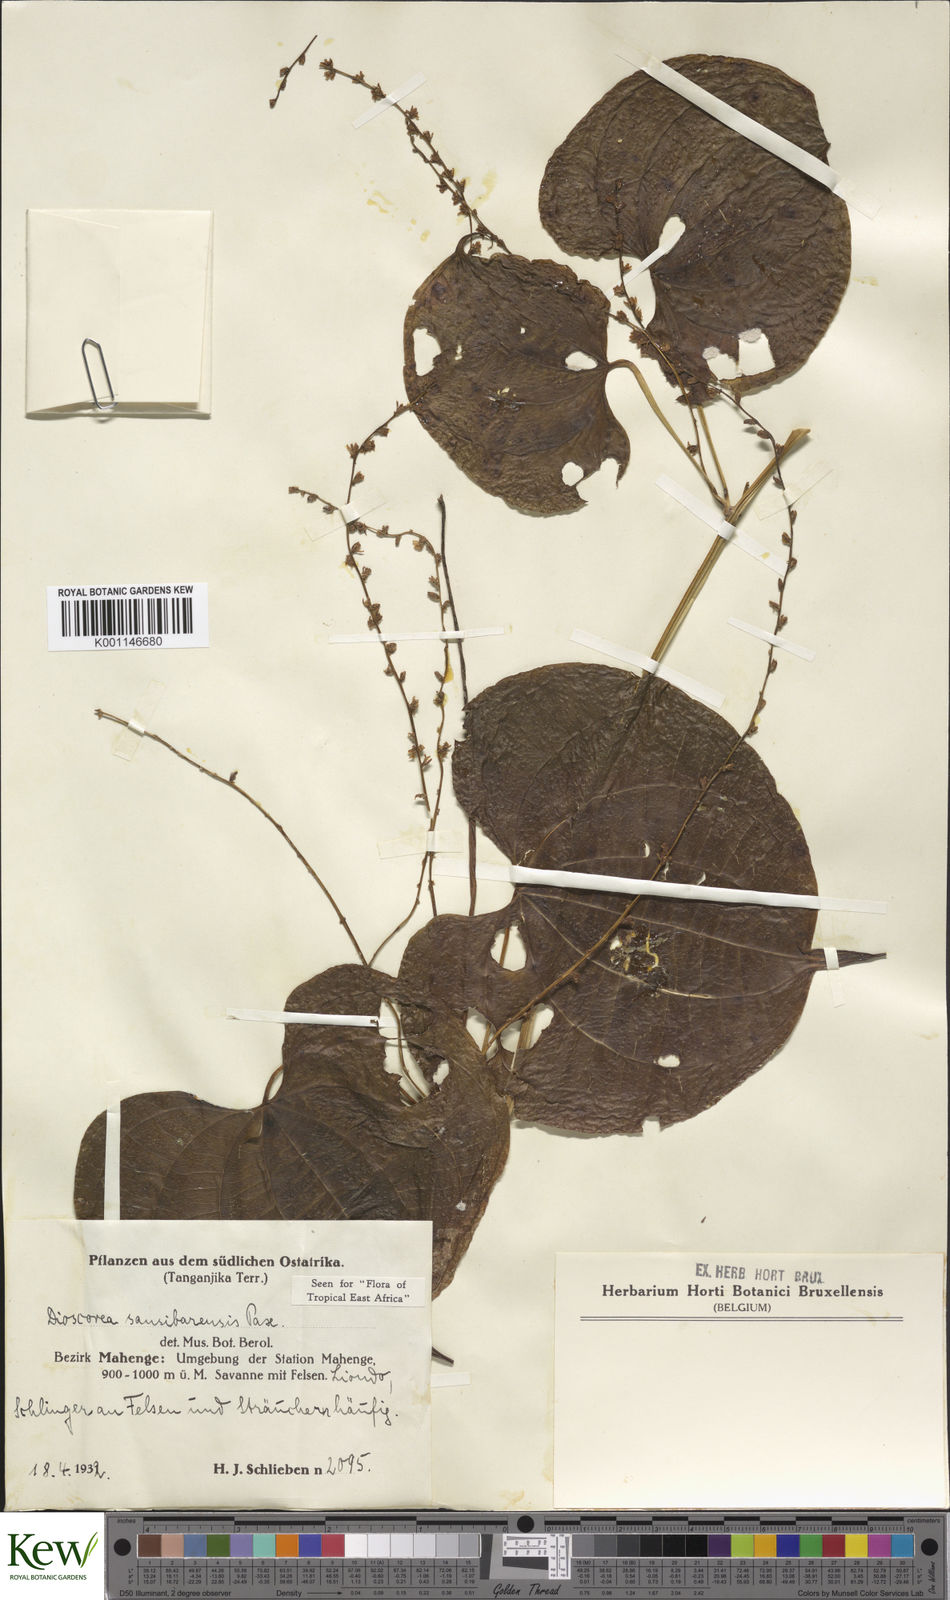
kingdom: Plantae
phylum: Tracheophyta
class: Liliopsida
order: Dioscoreales
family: Dioscoreaceae
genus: Dioscorea
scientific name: Dioscorea sansibarensis
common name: Zanzibar yam
